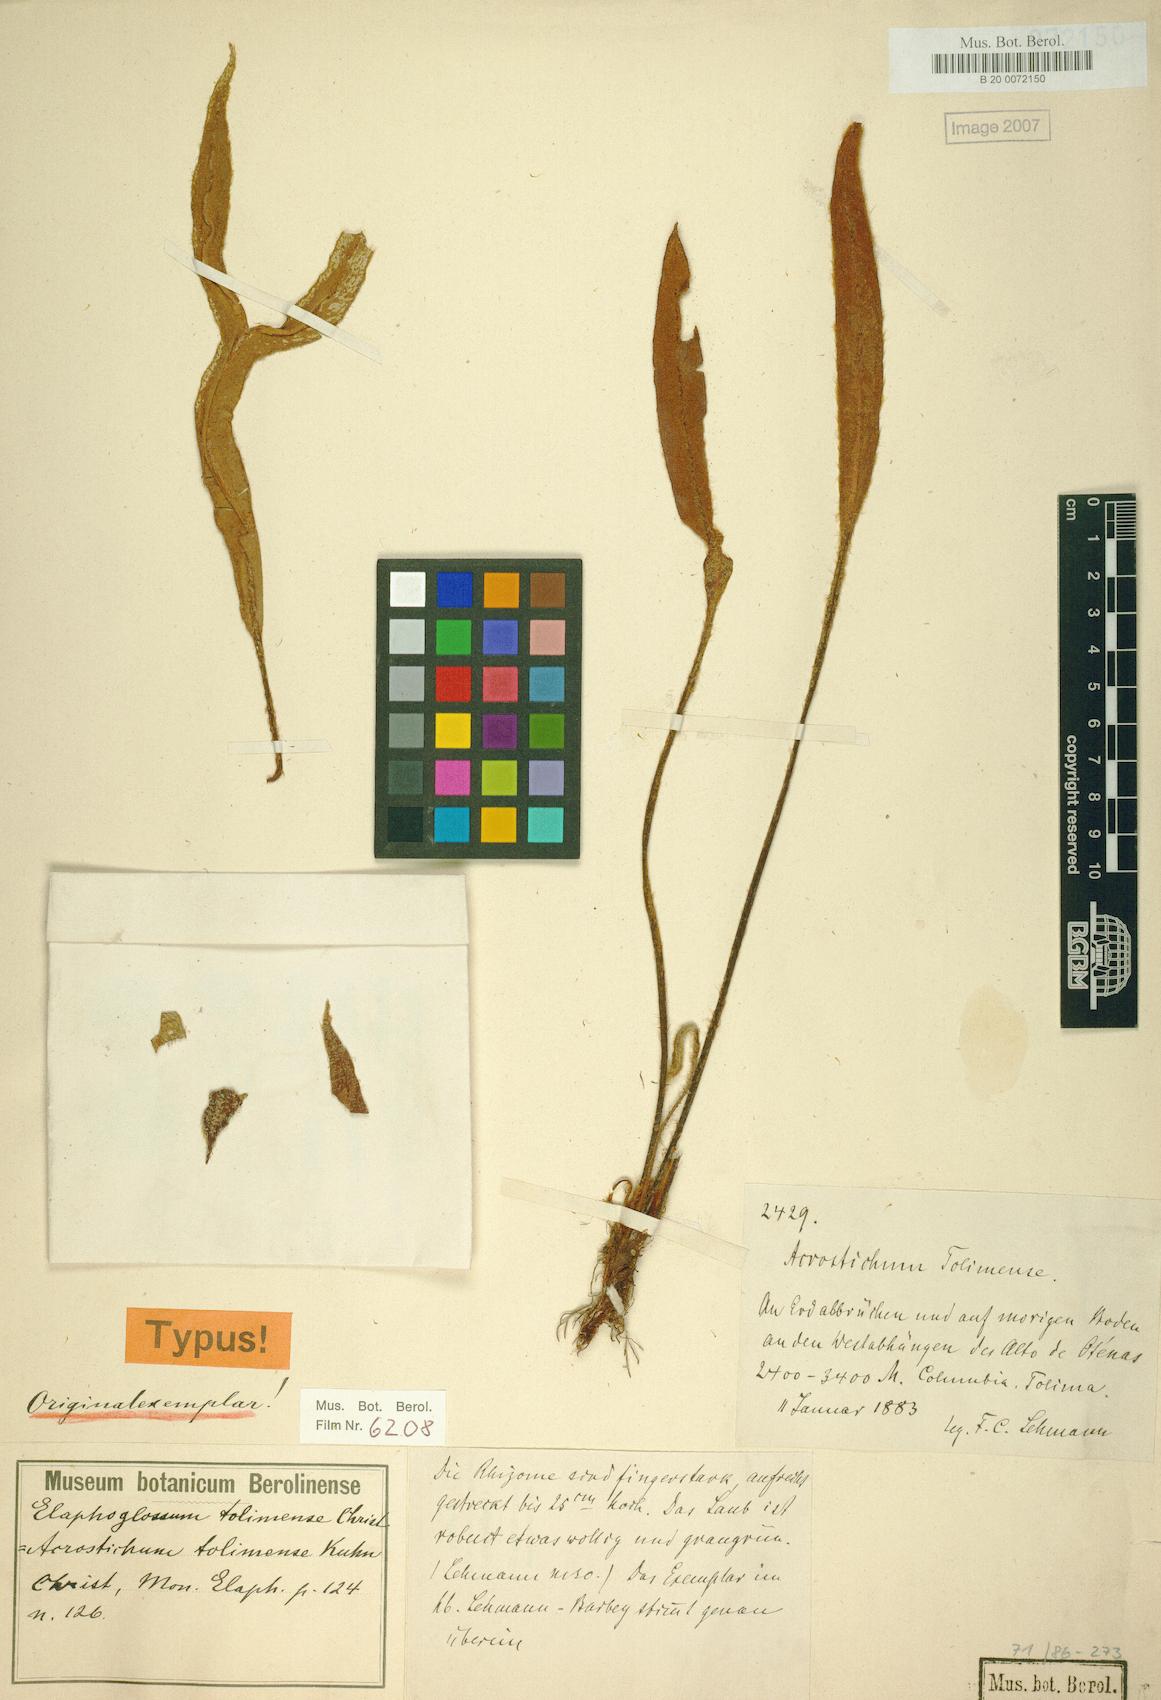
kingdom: Plantae
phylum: Tracheophyta
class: Polypodiopsida
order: Polypodiales
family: Dryopteridaceae
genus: Elaphoglossum
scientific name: Elaphoglossum tolimense
